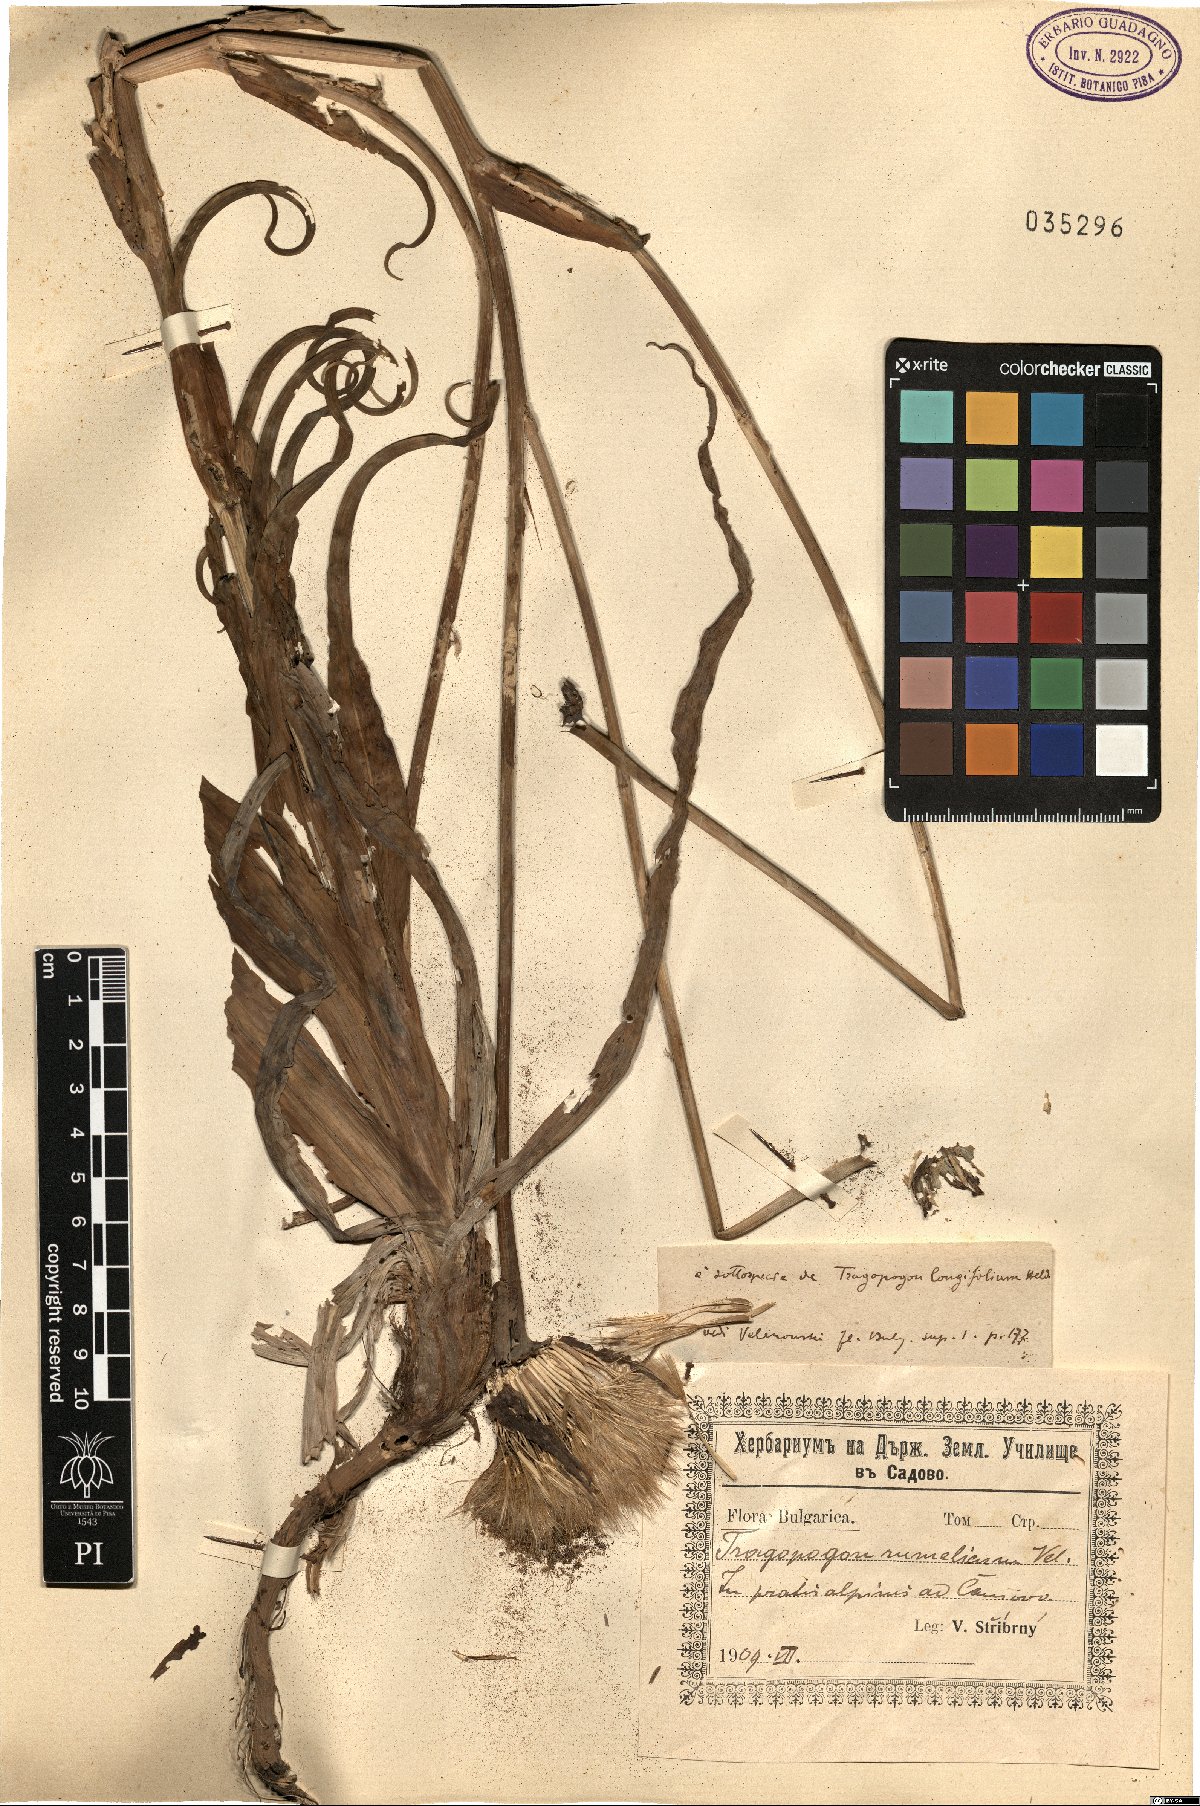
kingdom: Plantae
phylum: Tracheophyta
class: Magnoliopsida
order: Asterales
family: Asteraceae
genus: Tragopogon
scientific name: Tragopogon orientalis
